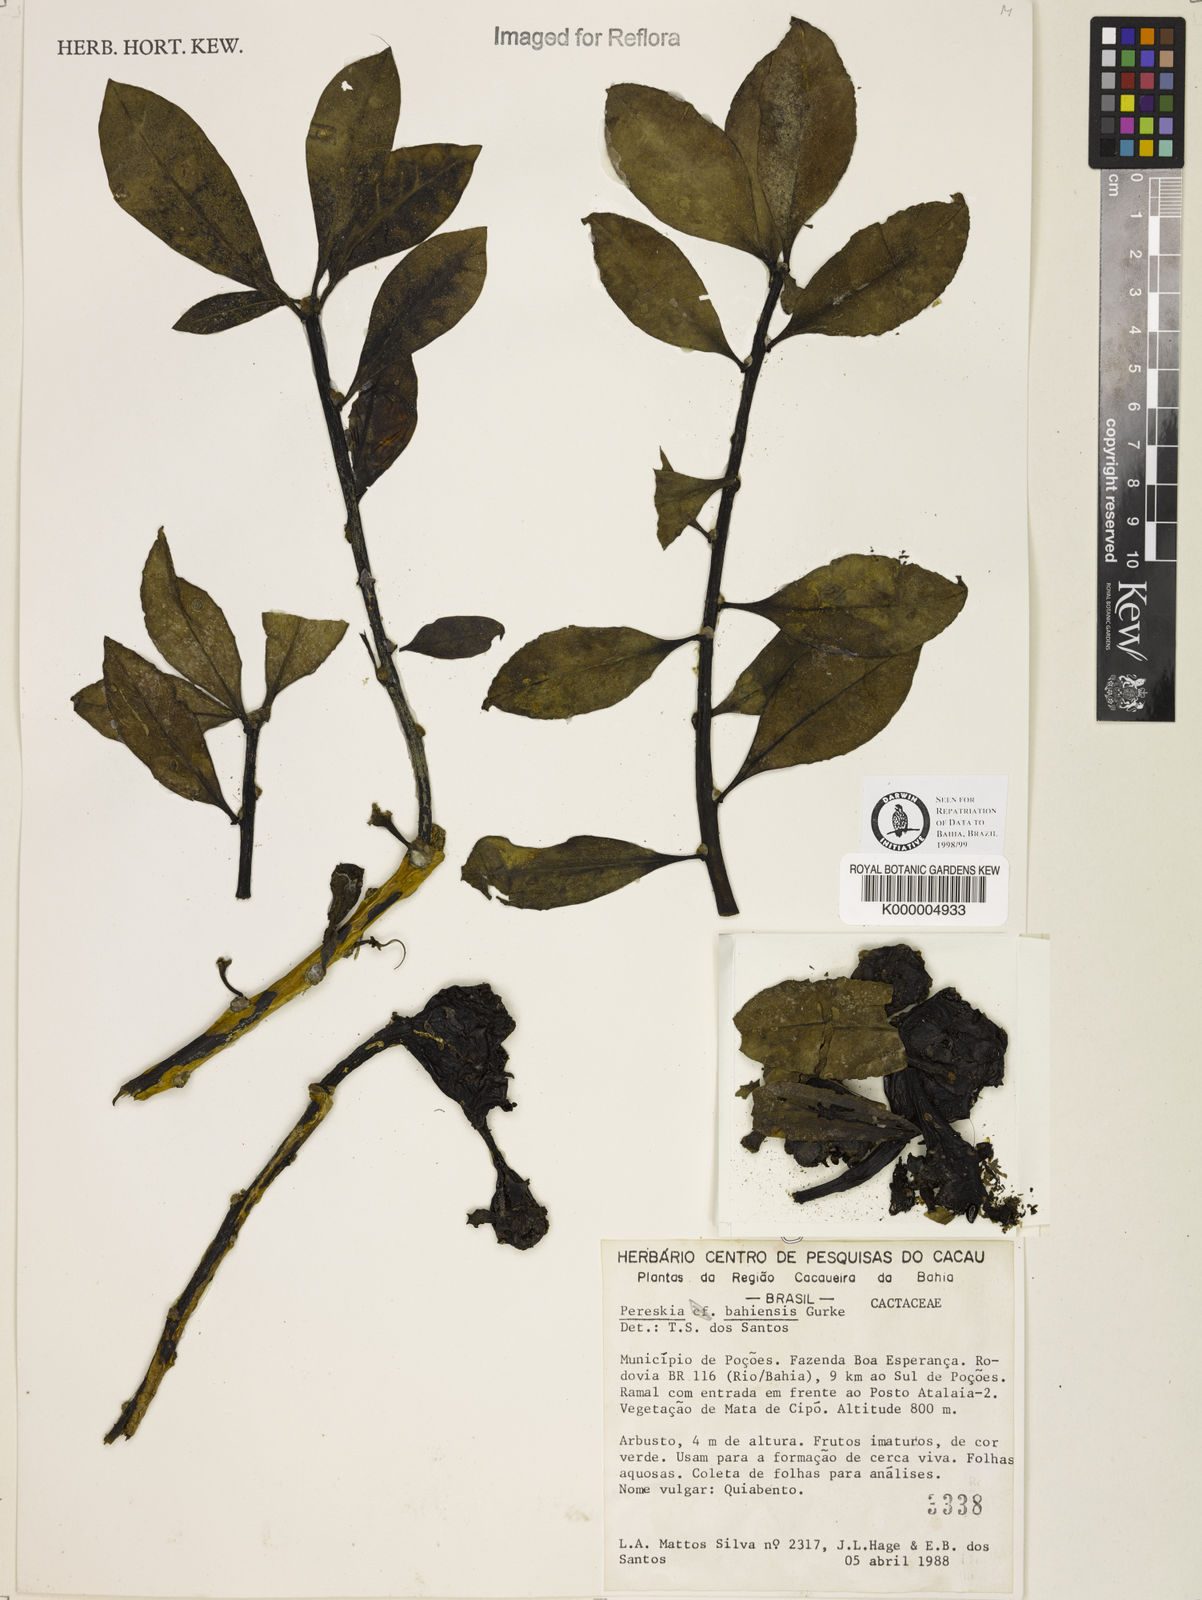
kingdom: Plantae
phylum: Tracheophyta
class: Magnoliopsida
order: Caryophyllales
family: Cactaceae
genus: Pereskia
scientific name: Pereskia
